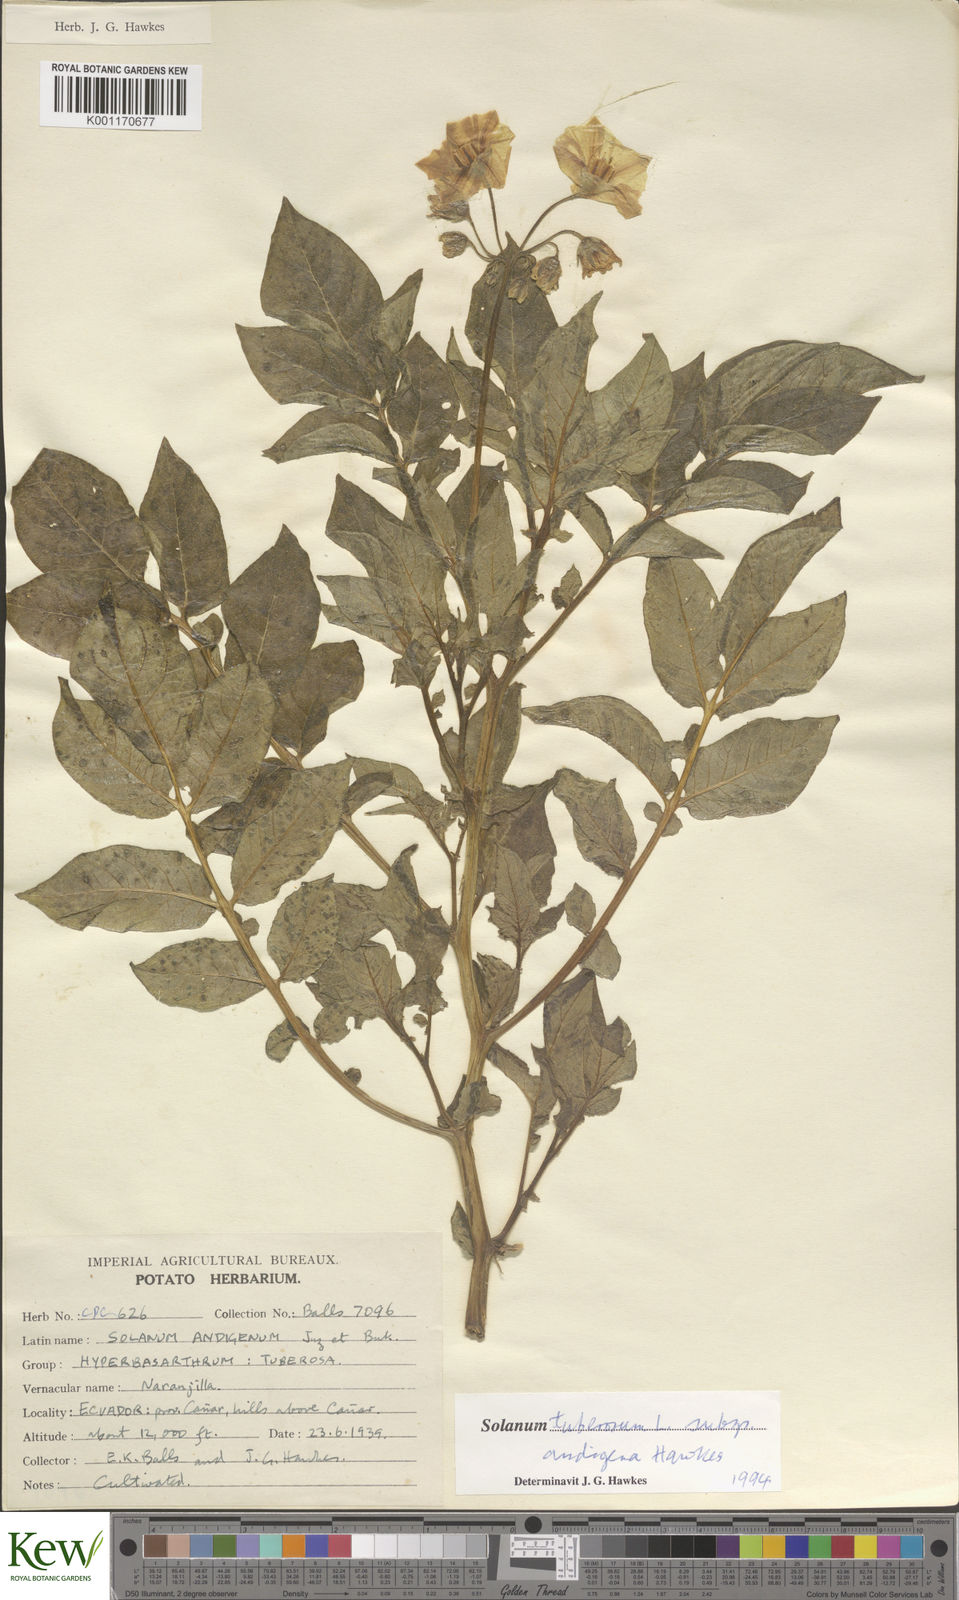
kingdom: Plantae
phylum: Tracheophyta
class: Magnoliopsida
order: Solanales
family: Solanaceae
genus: Solanum
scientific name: Solanum tuberosum
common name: Potato
